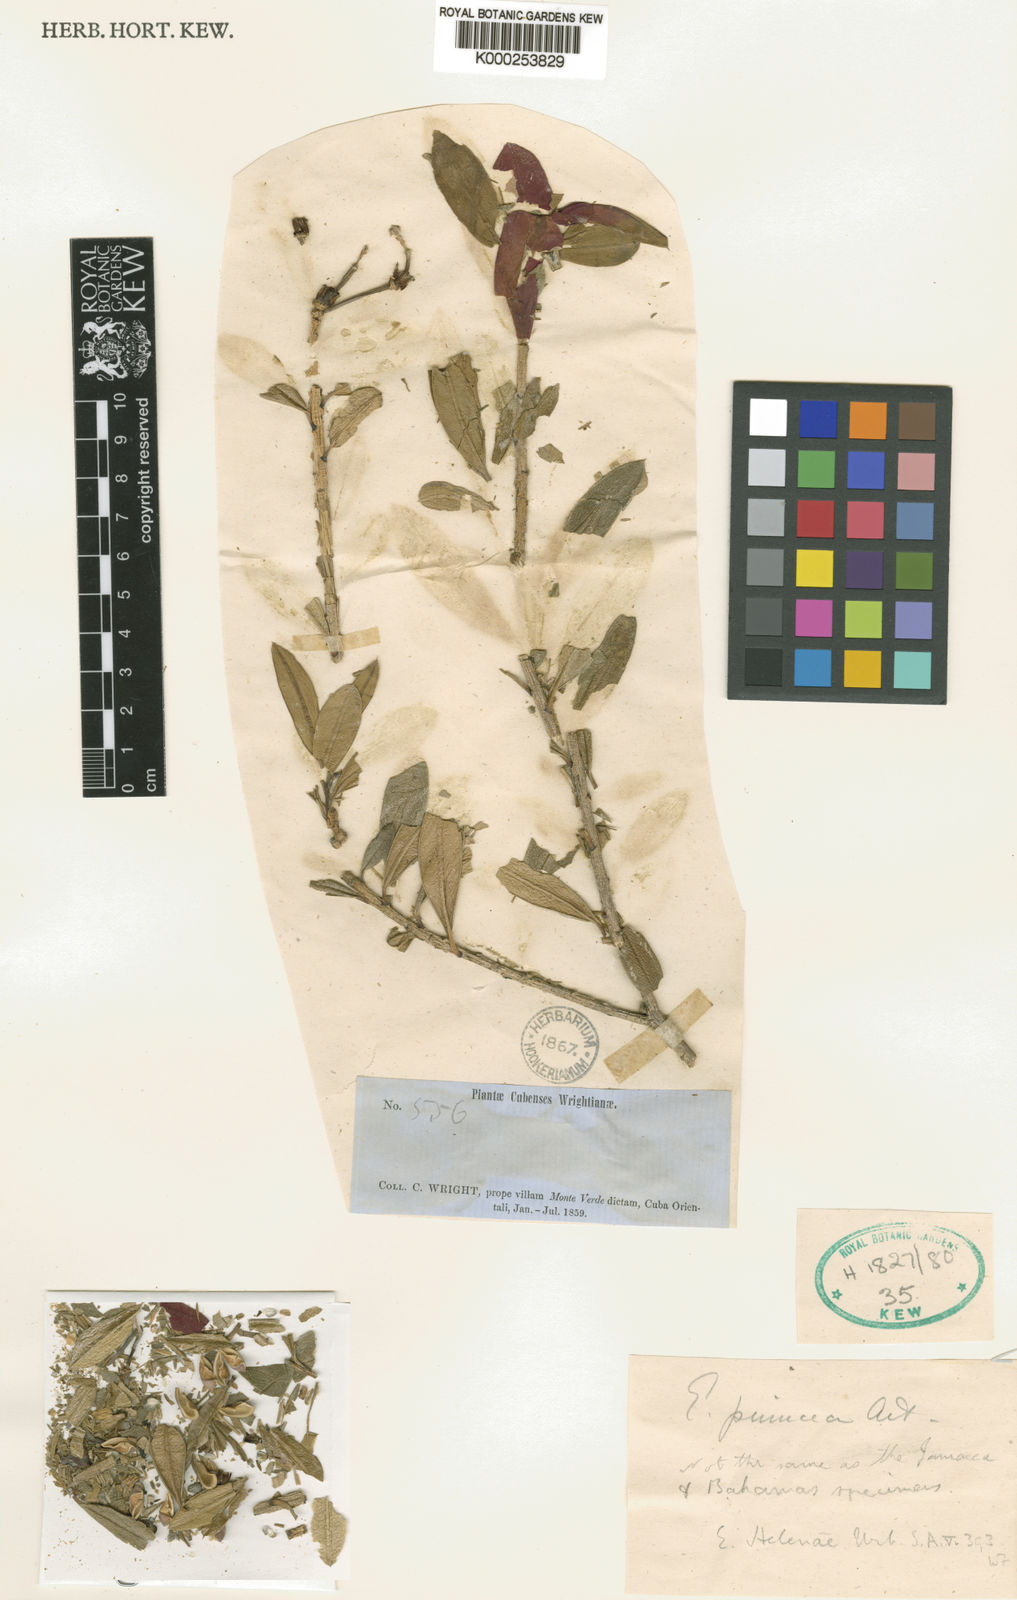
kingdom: Plantae
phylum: Tracheophyta
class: Magnoliopsida
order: Malpighiales
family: Euphorbiaceae
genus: Euphorbia
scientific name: Euphorbia punicea
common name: Vegetable-leather
